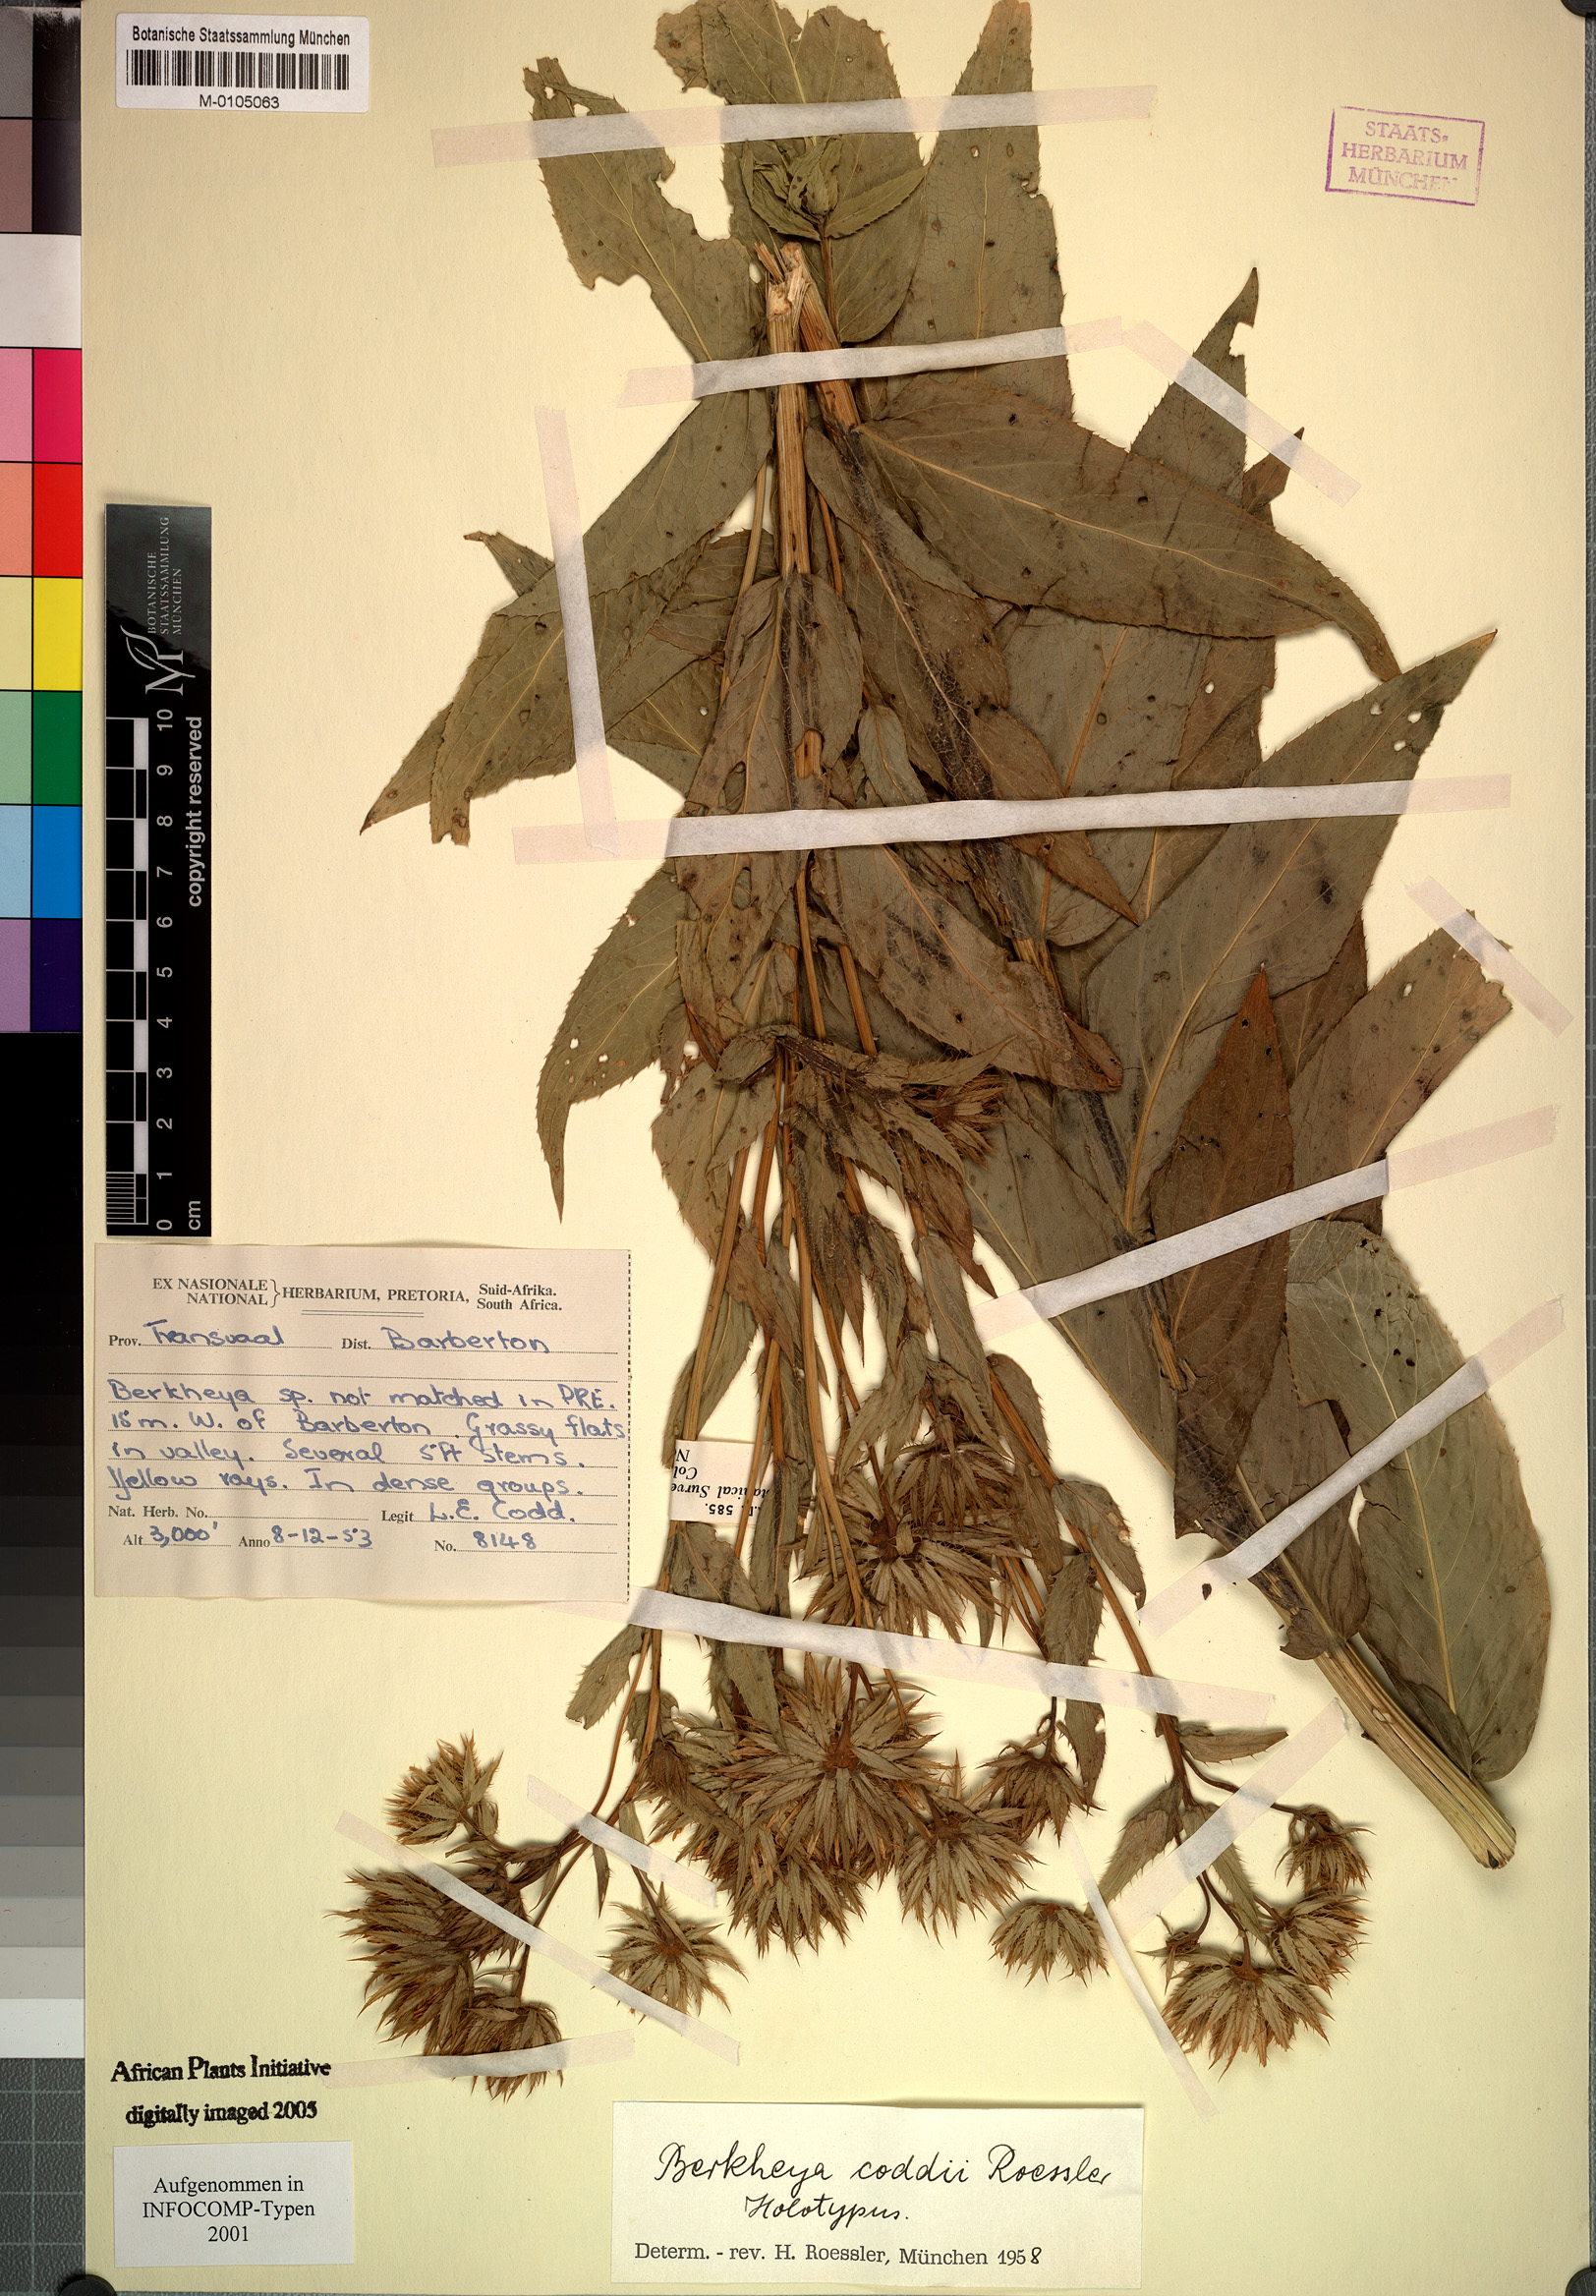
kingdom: Plantae
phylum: Tracheophyta
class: Magnoliopsida
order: Asterales
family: Asteraceae
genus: Berkheya
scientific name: Berkheya coddii
